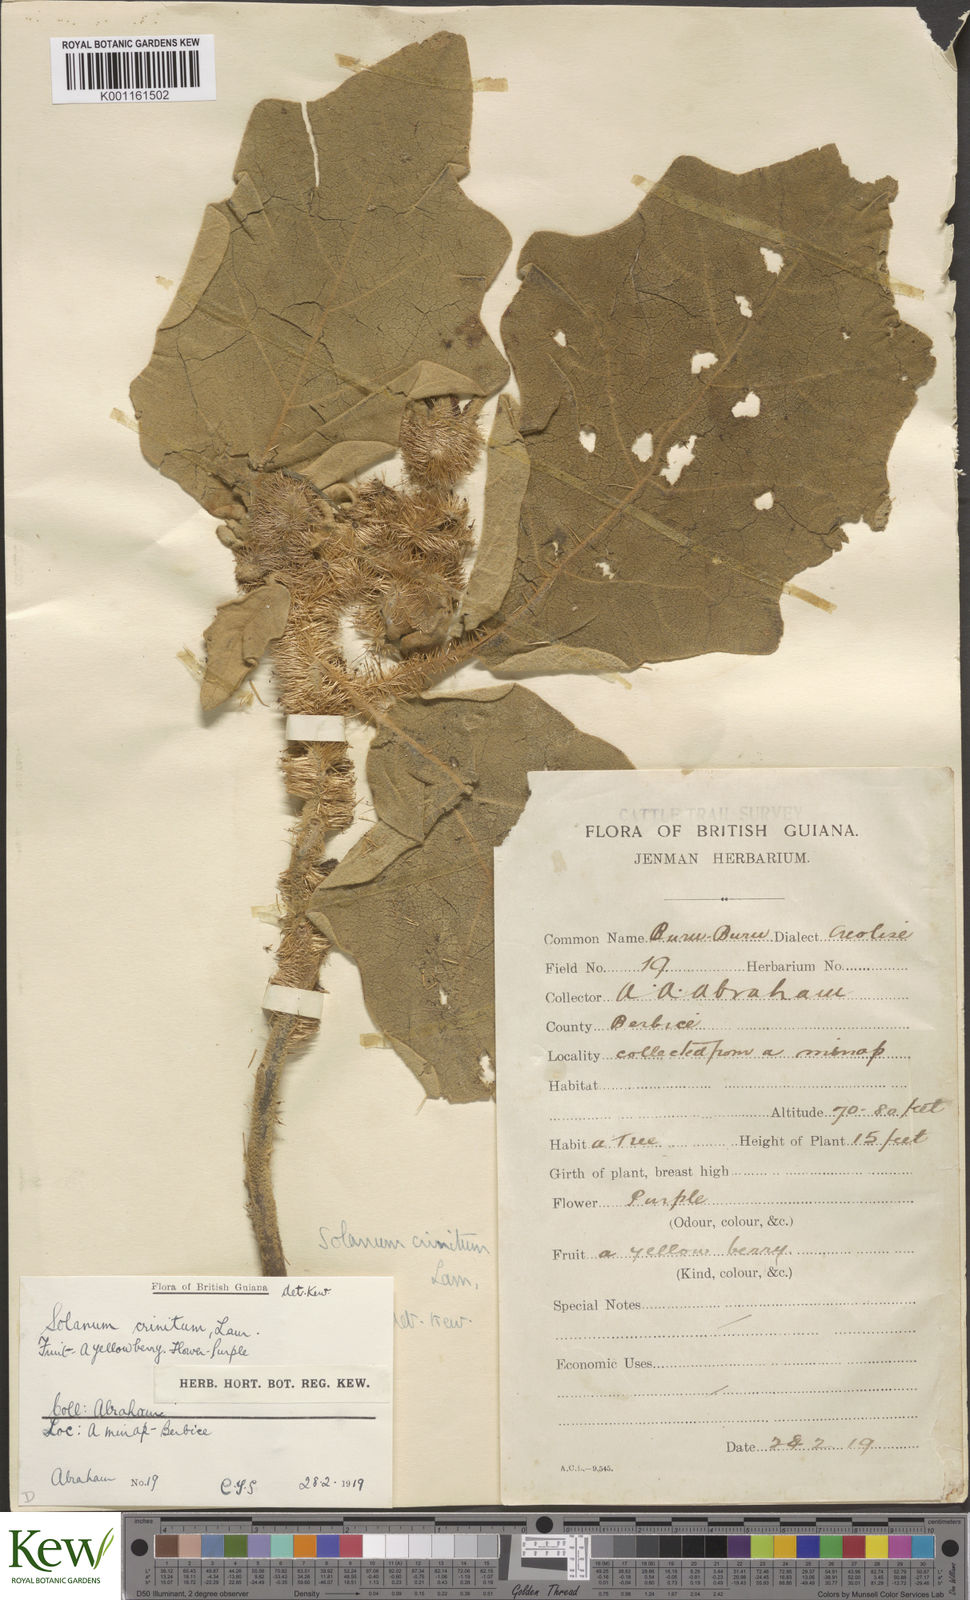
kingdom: Plantae
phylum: Tracheophyta
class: Magnoliopsida
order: Solanales
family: Solanaceae
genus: Solanum
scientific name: Solanum crinitum
